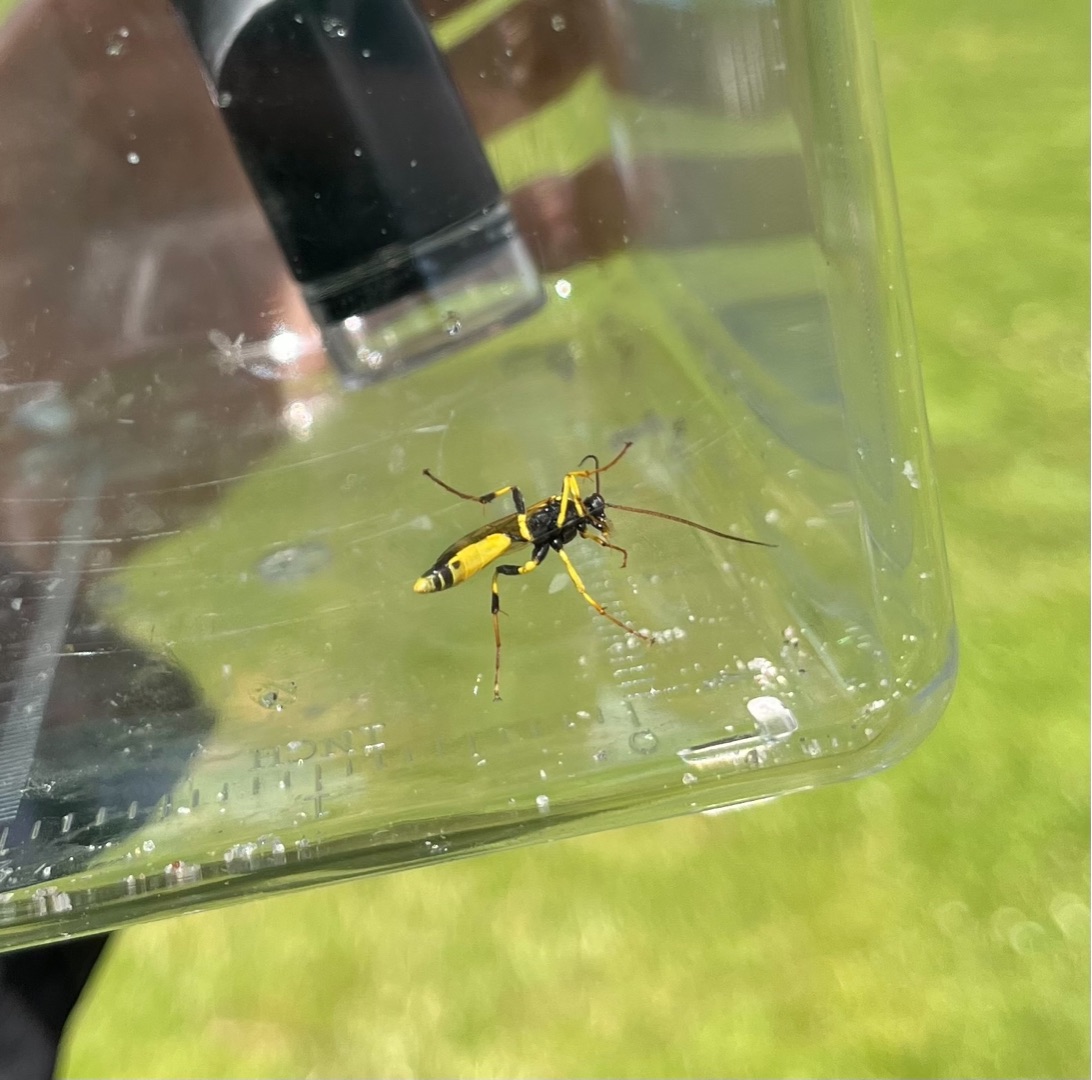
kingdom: Animalia
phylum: Arthropoda
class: Insecta
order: Hymenoptera
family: Ichneumonidae
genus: Amblyteles
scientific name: Amblyteles armatorius
